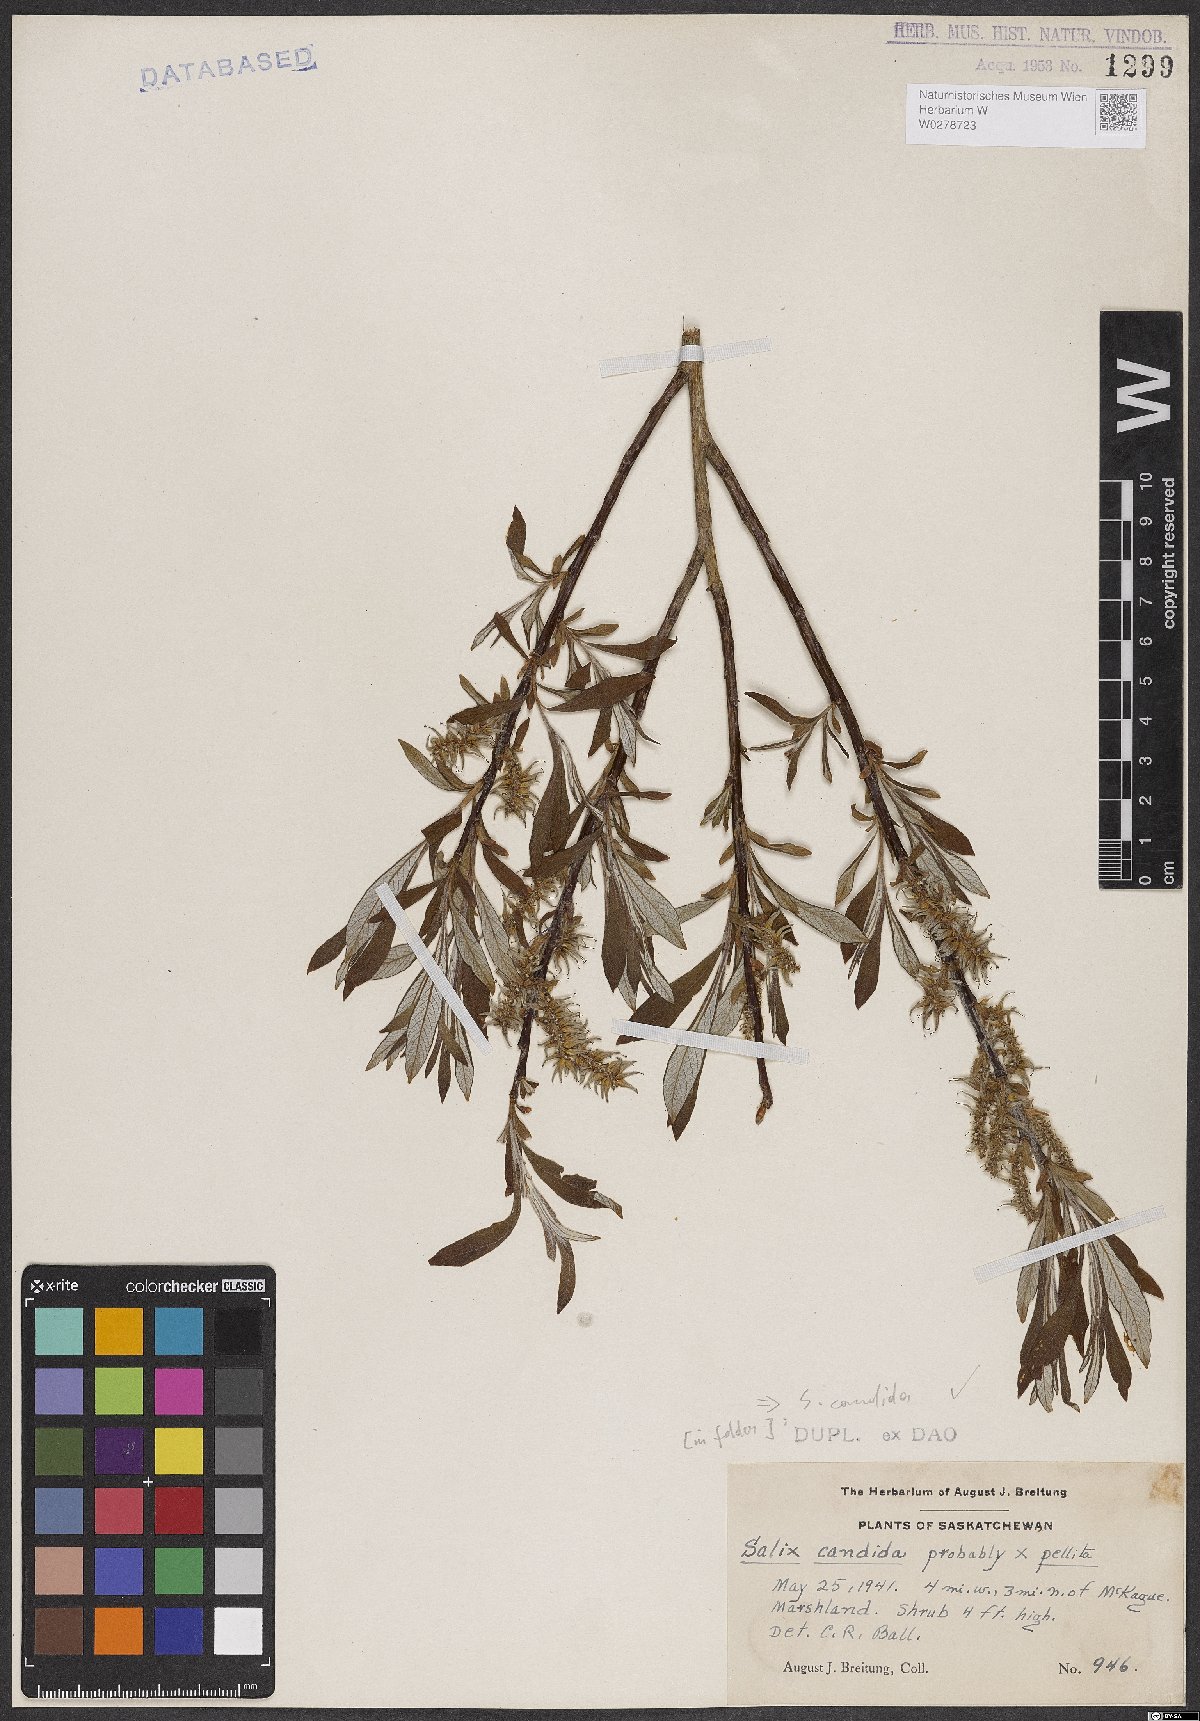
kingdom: Plantae
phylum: Tracheophyta
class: Magnoliopsida
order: Malpighiales
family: Salicaceae
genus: Salix
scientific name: Salix candida
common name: Hoary willow
